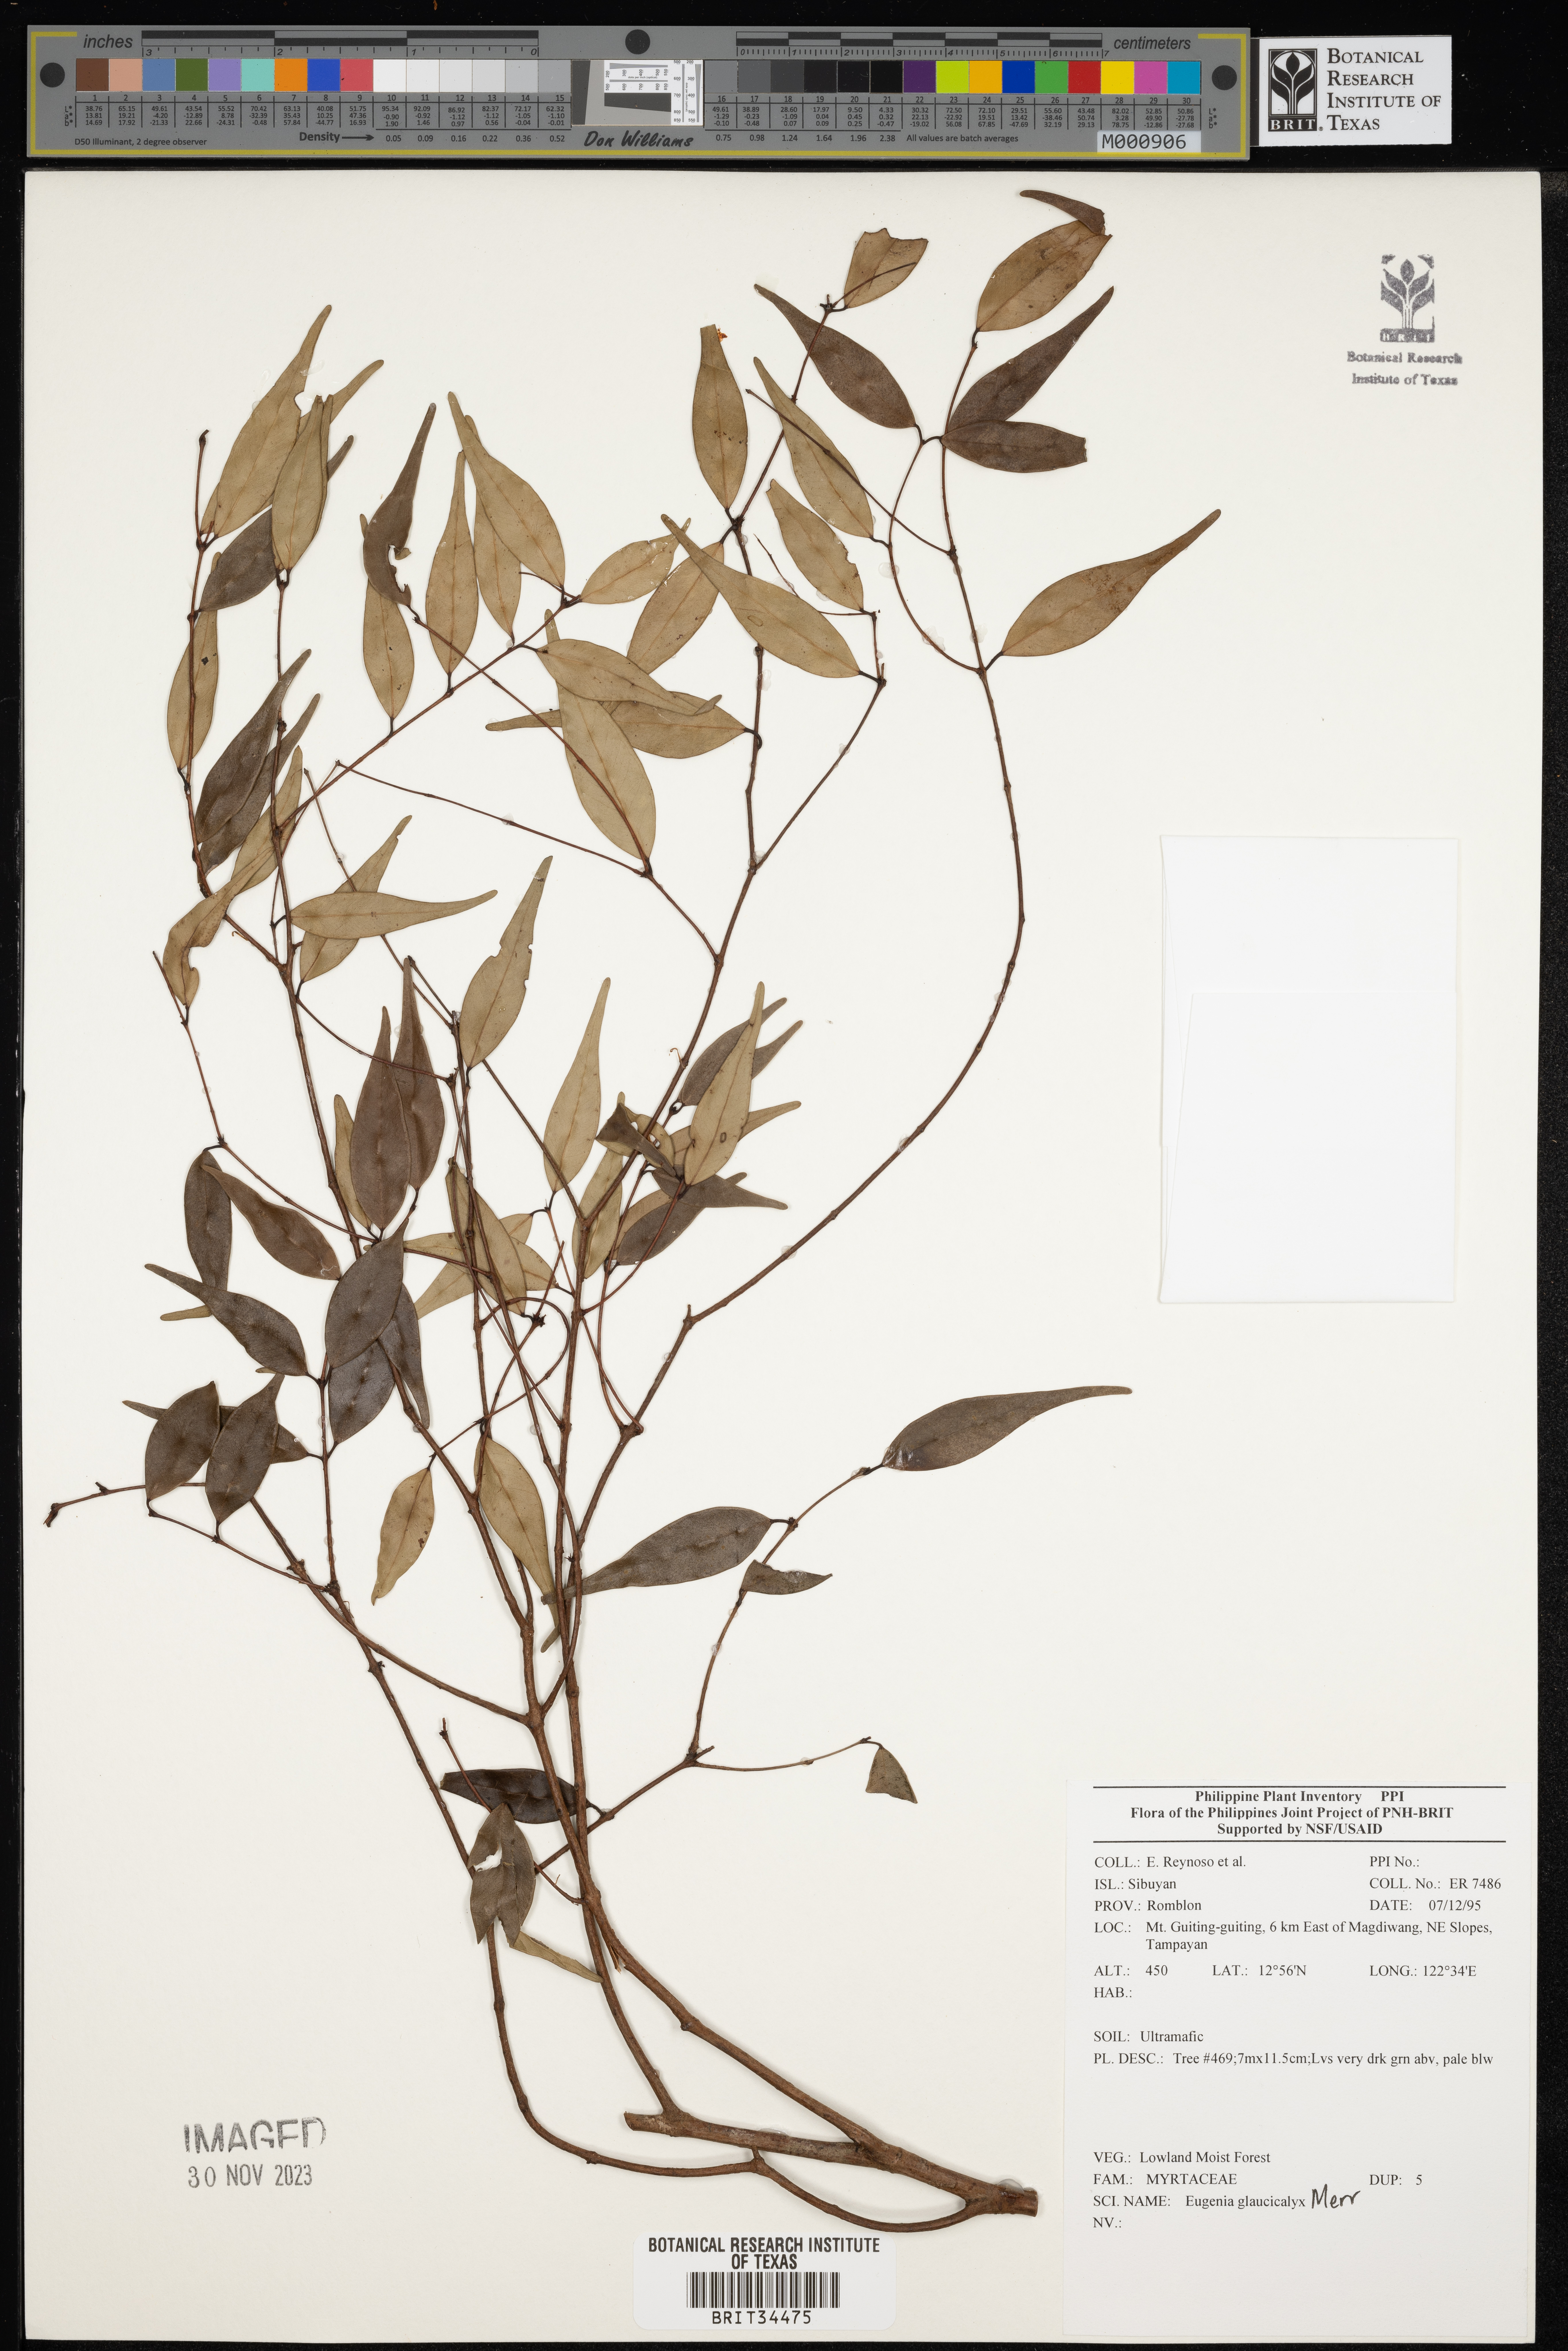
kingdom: Plantae
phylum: Tracheophyta
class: Magnoliopsida
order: Myrtales
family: Myrtaceae
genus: Eugenia
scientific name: Eugenia
